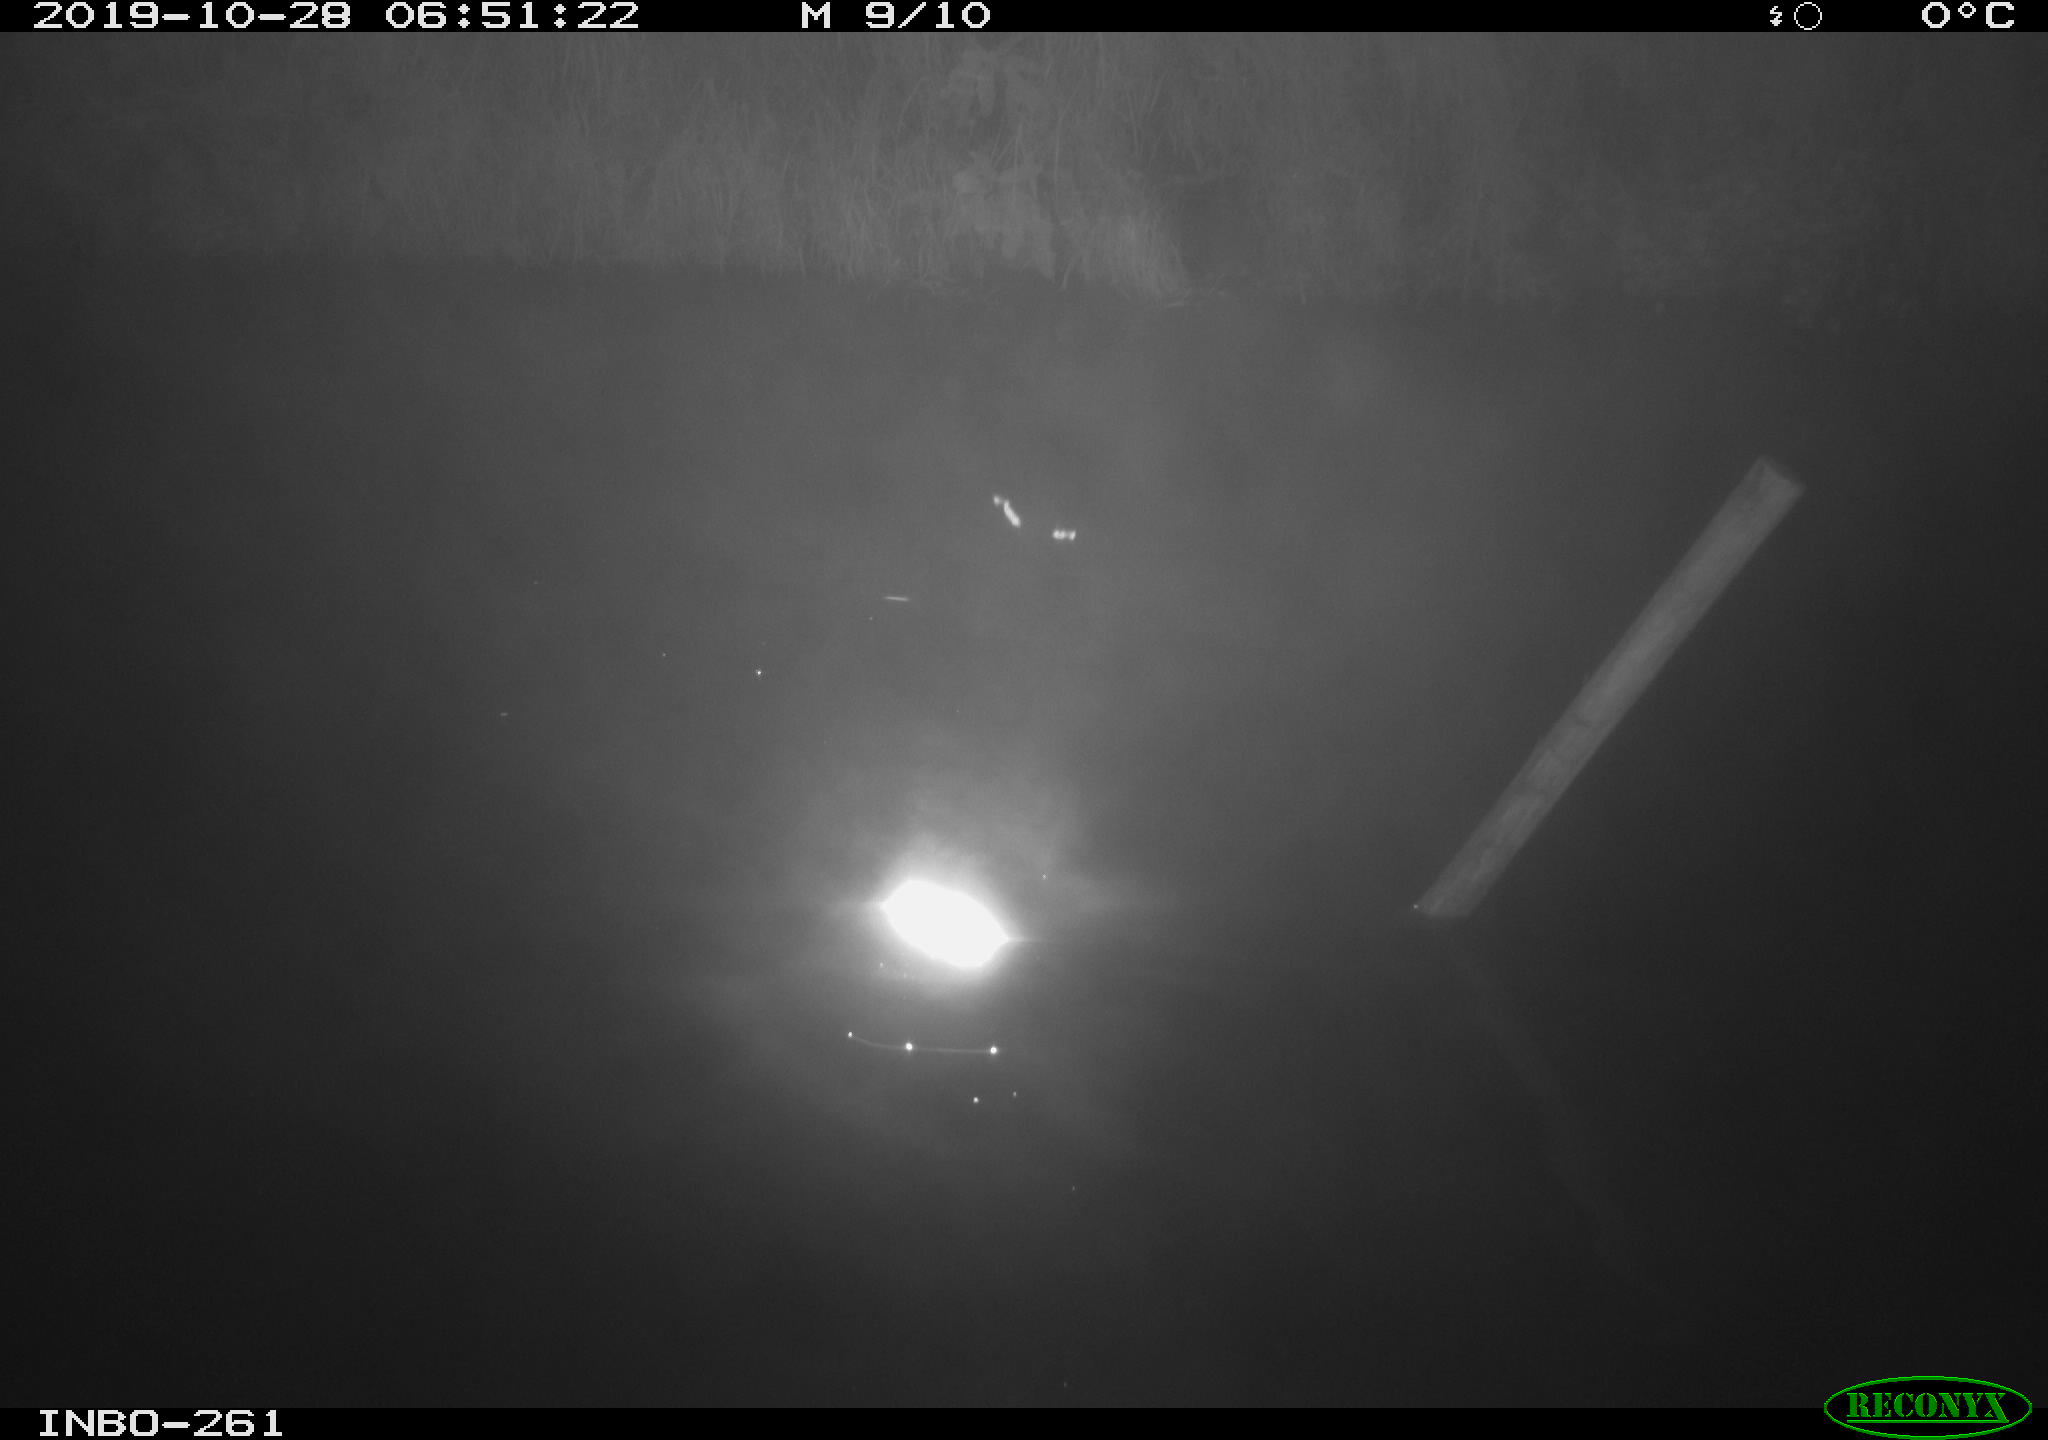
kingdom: Animalia
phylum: Chordata
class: Aves
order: Anseriformes
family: Anatidae
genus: Anas
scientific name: Anas platyrhynchos
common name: Mallard
